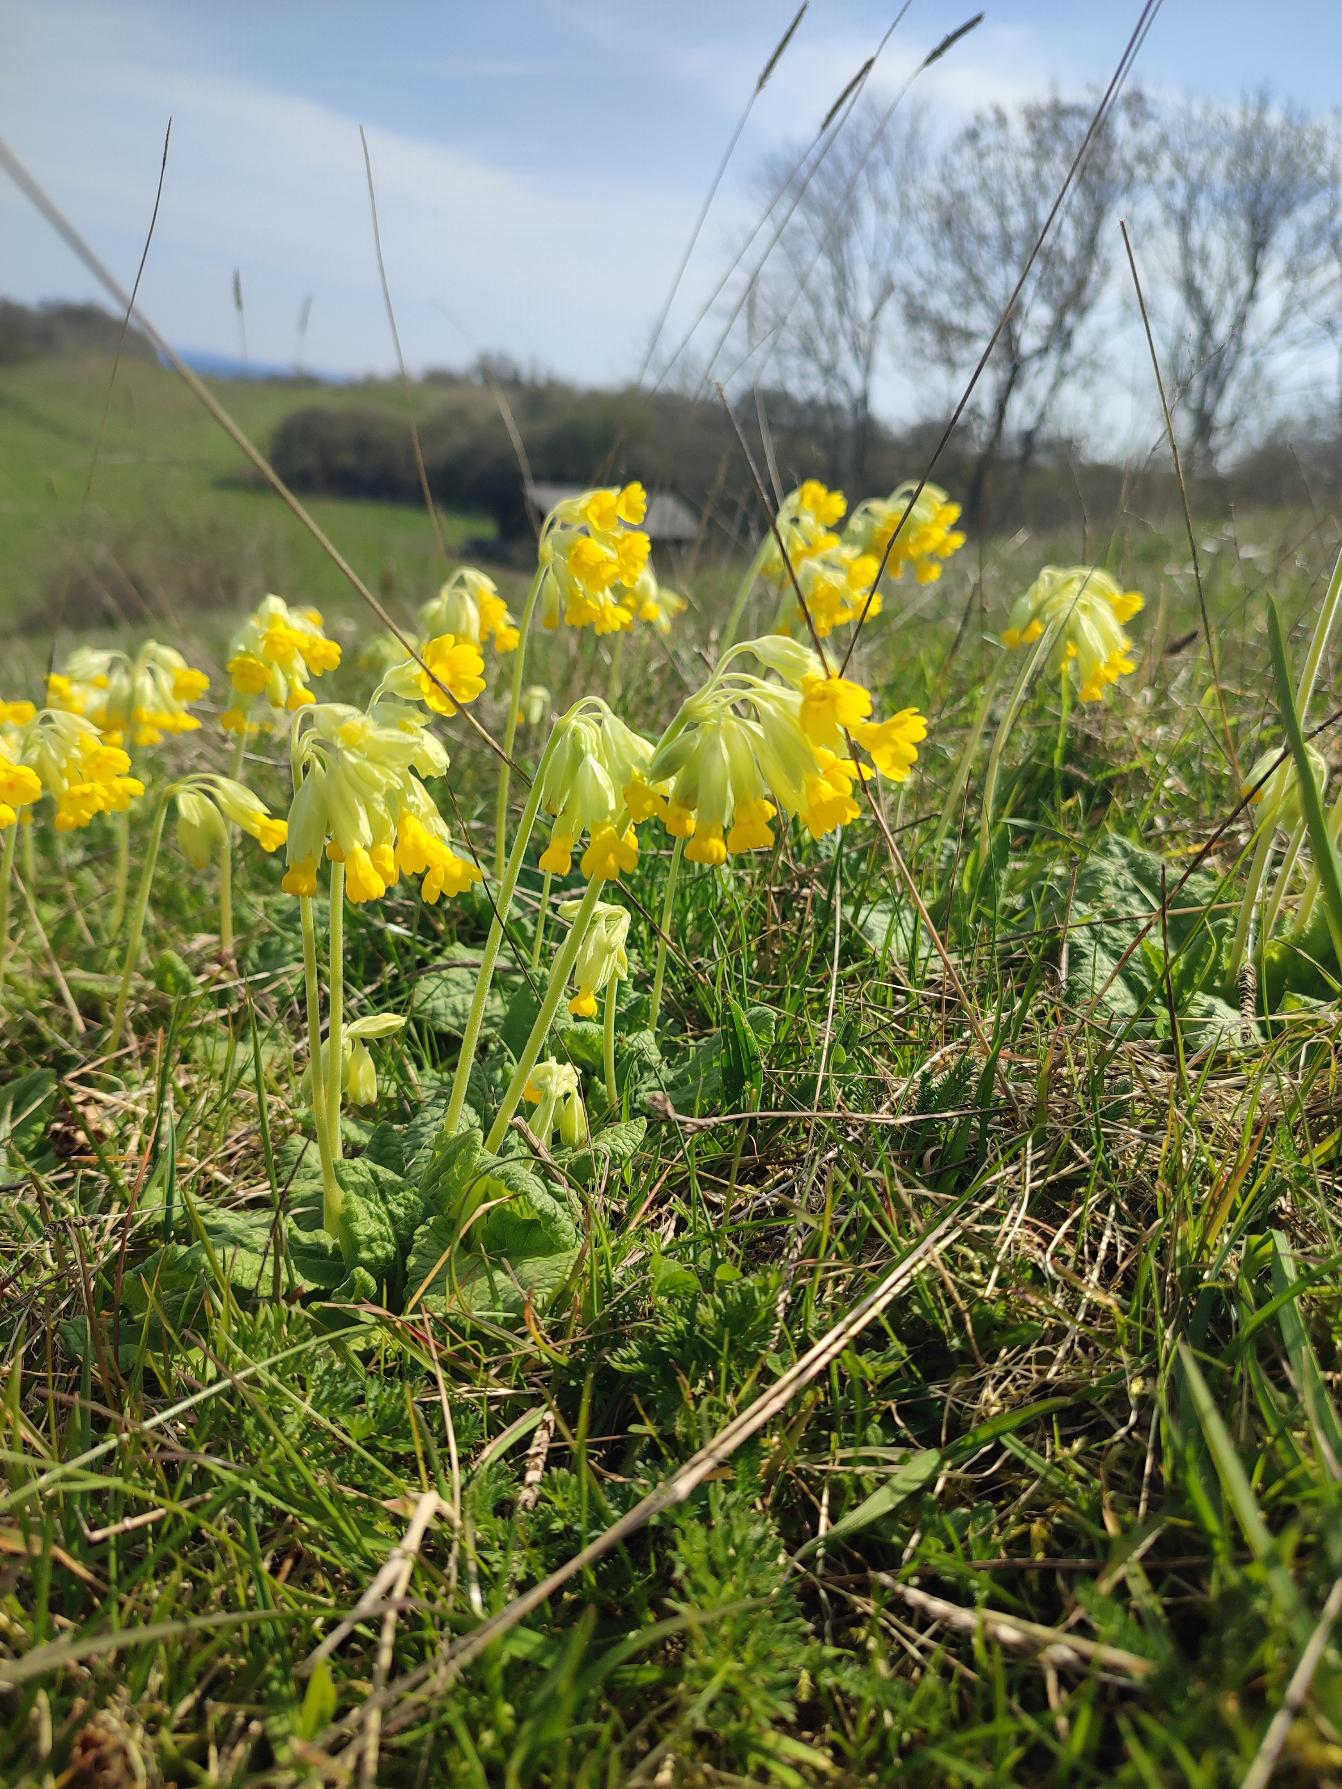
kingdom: Plantae
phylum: Tracheophyta
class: Magnoliopsida
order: Ericales
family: Primulaceae
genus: Primula
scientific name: Primula veris
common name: Hulkravet kodriver
